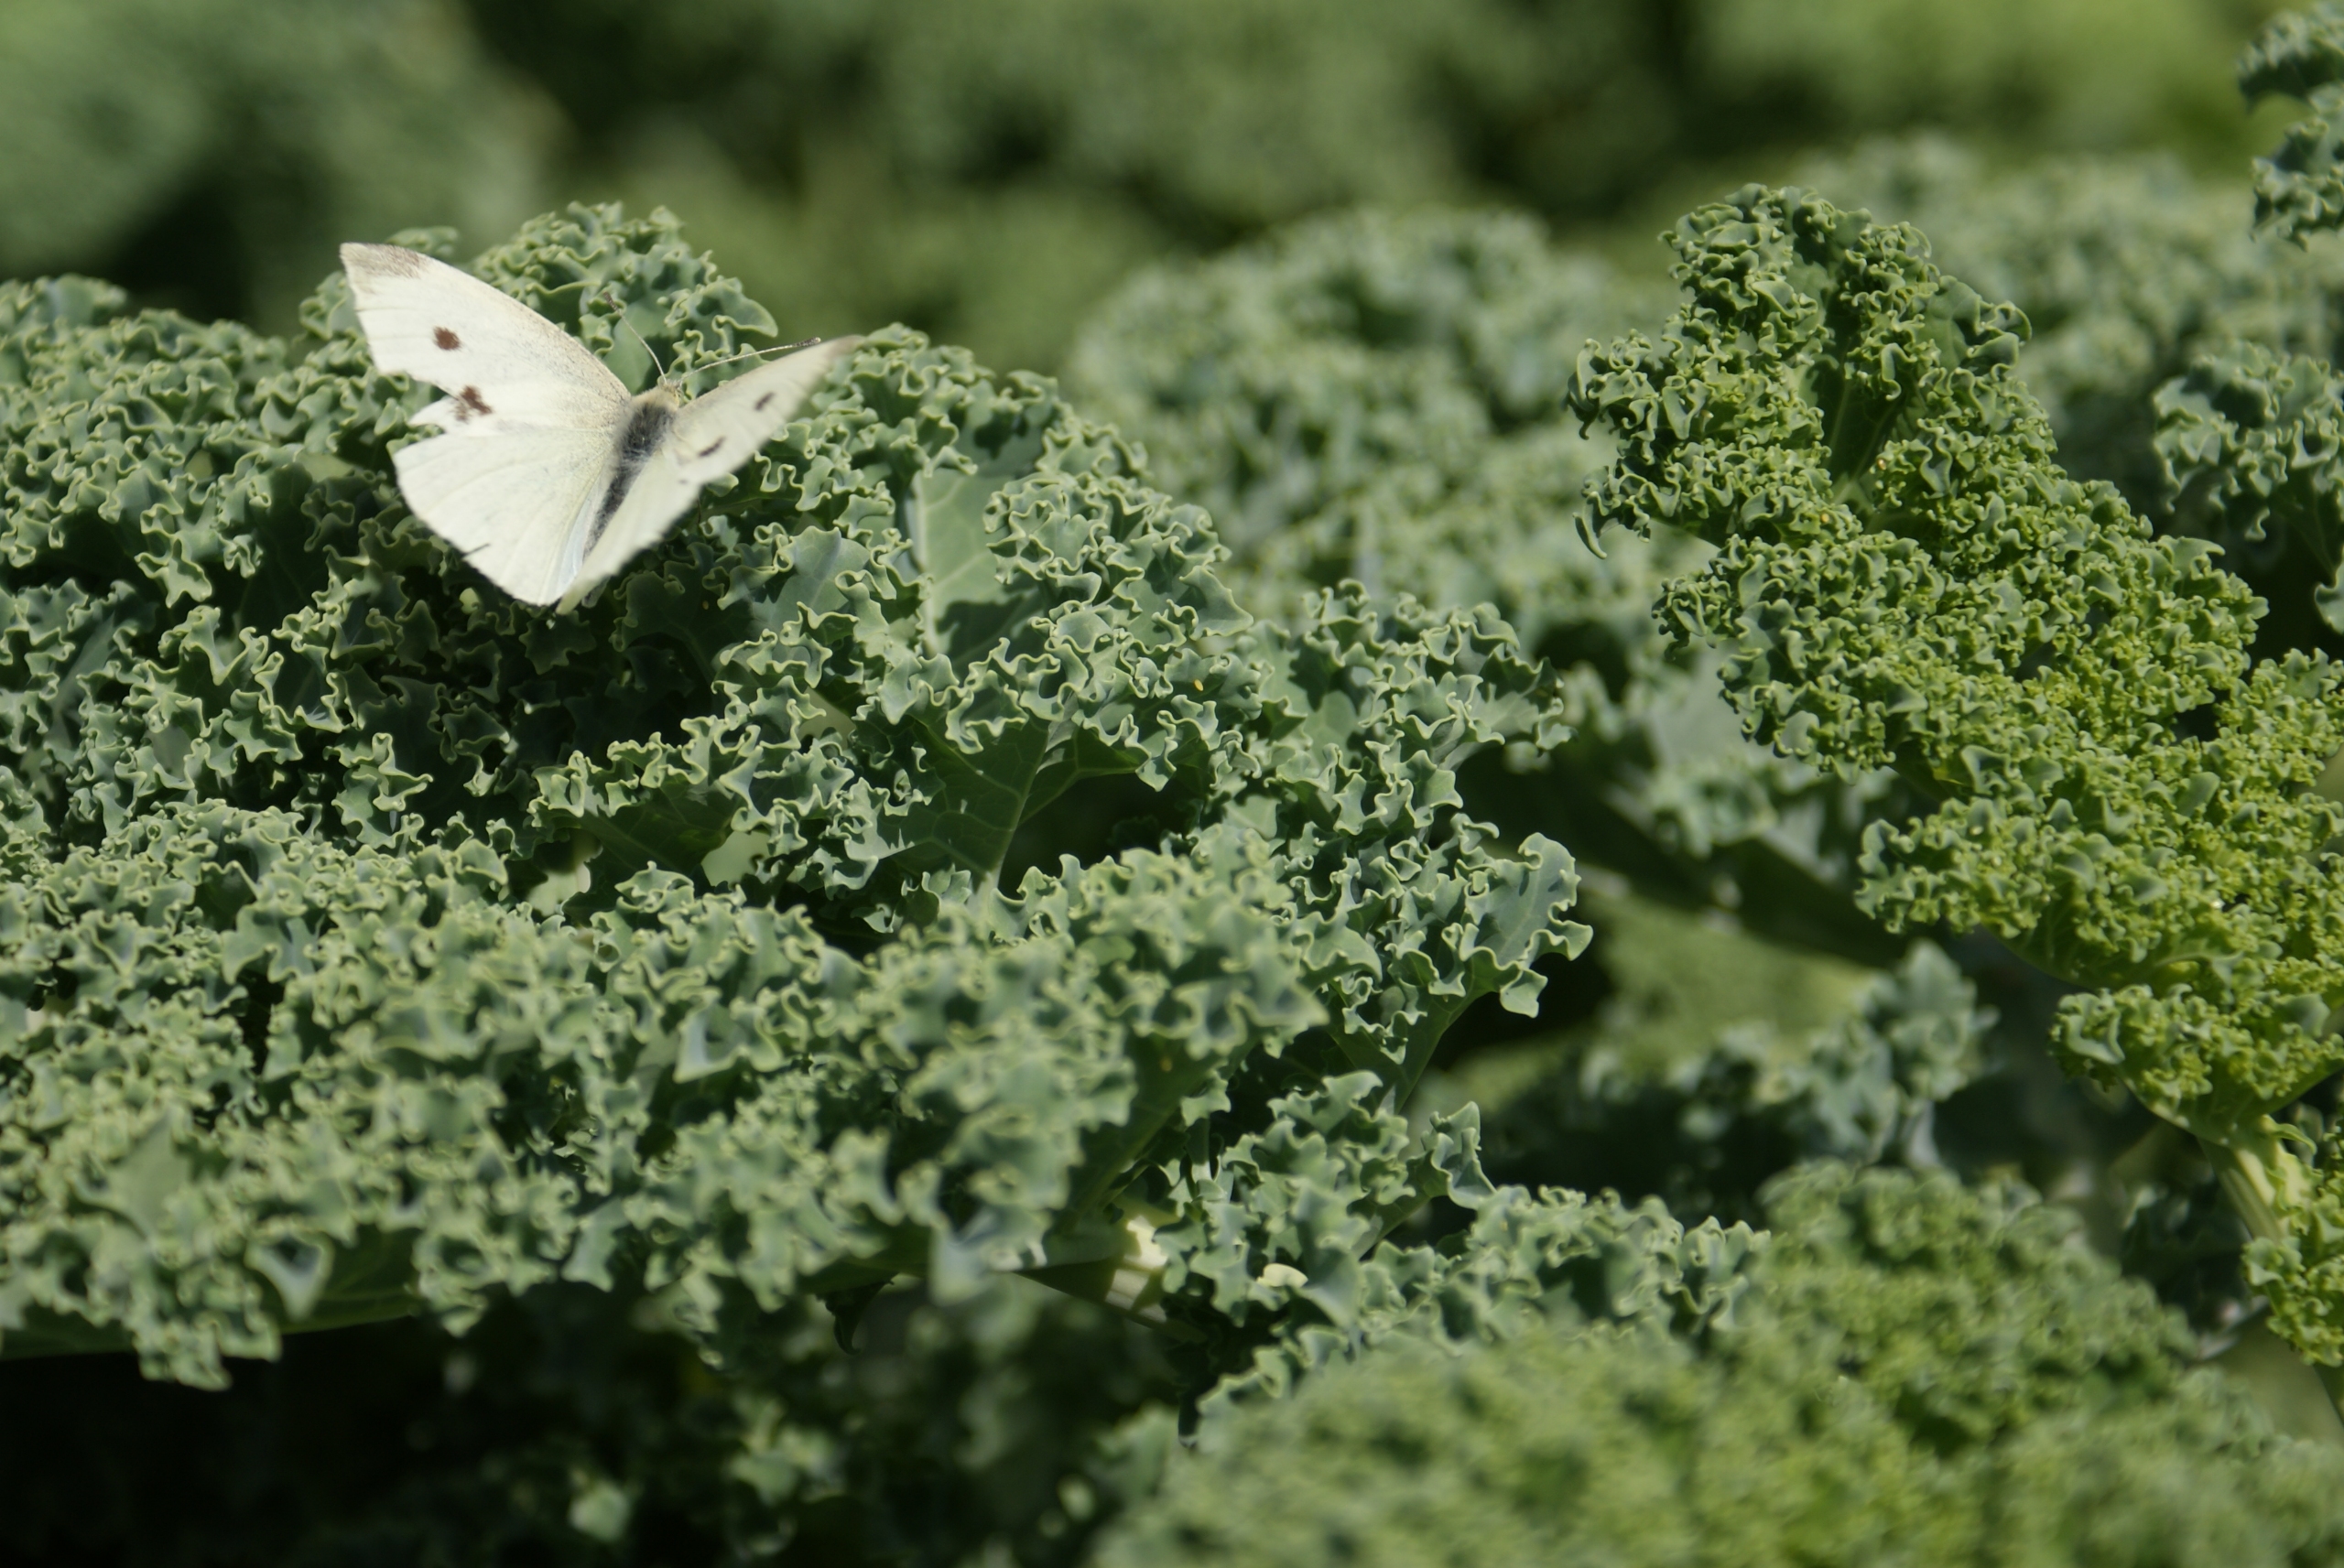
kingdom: Animalia
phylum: Arthropoda
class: Insecta
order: Lepidoptera
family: Pieridae
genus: Pieris
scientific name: Pieris rapae
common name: Lille kålsommerfugl
